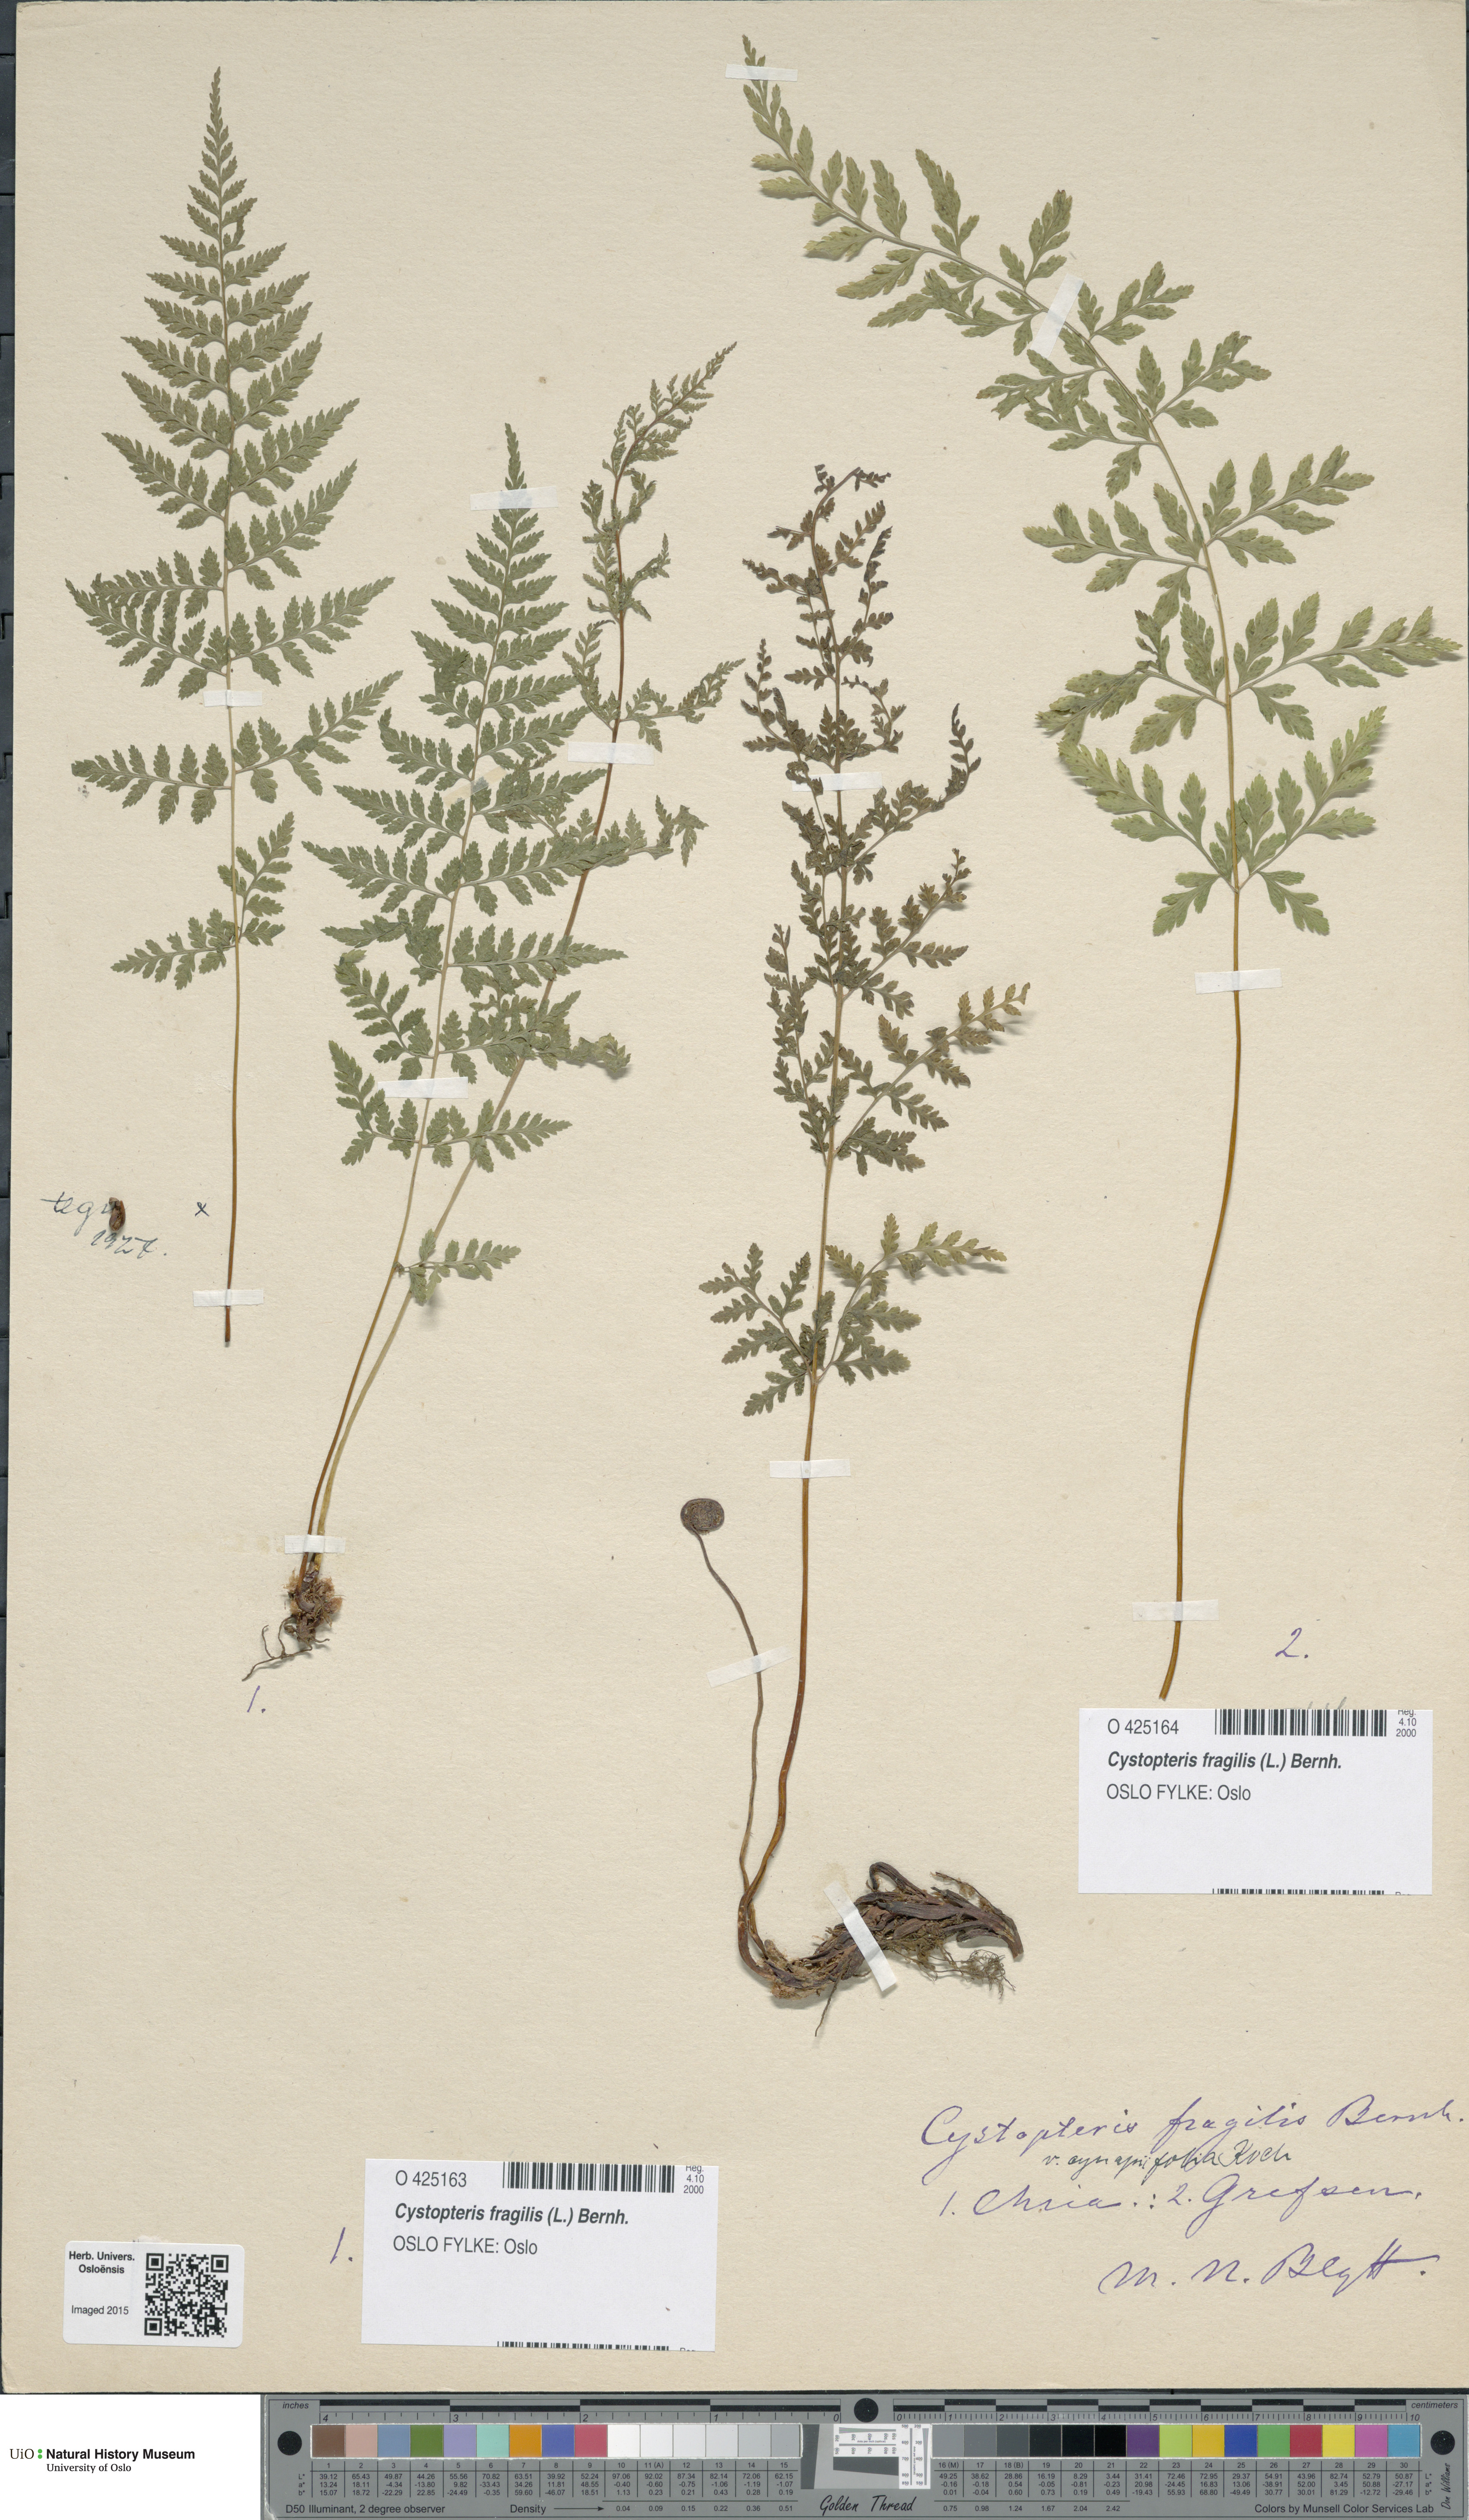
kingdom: Plantae
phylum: Tracheophyta
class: Polypodiopsida
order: Polypodiales
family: Cystopteridaceae
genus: Cystopteris
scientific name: Cystopteris fragilis
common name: Brittle bladder fern
